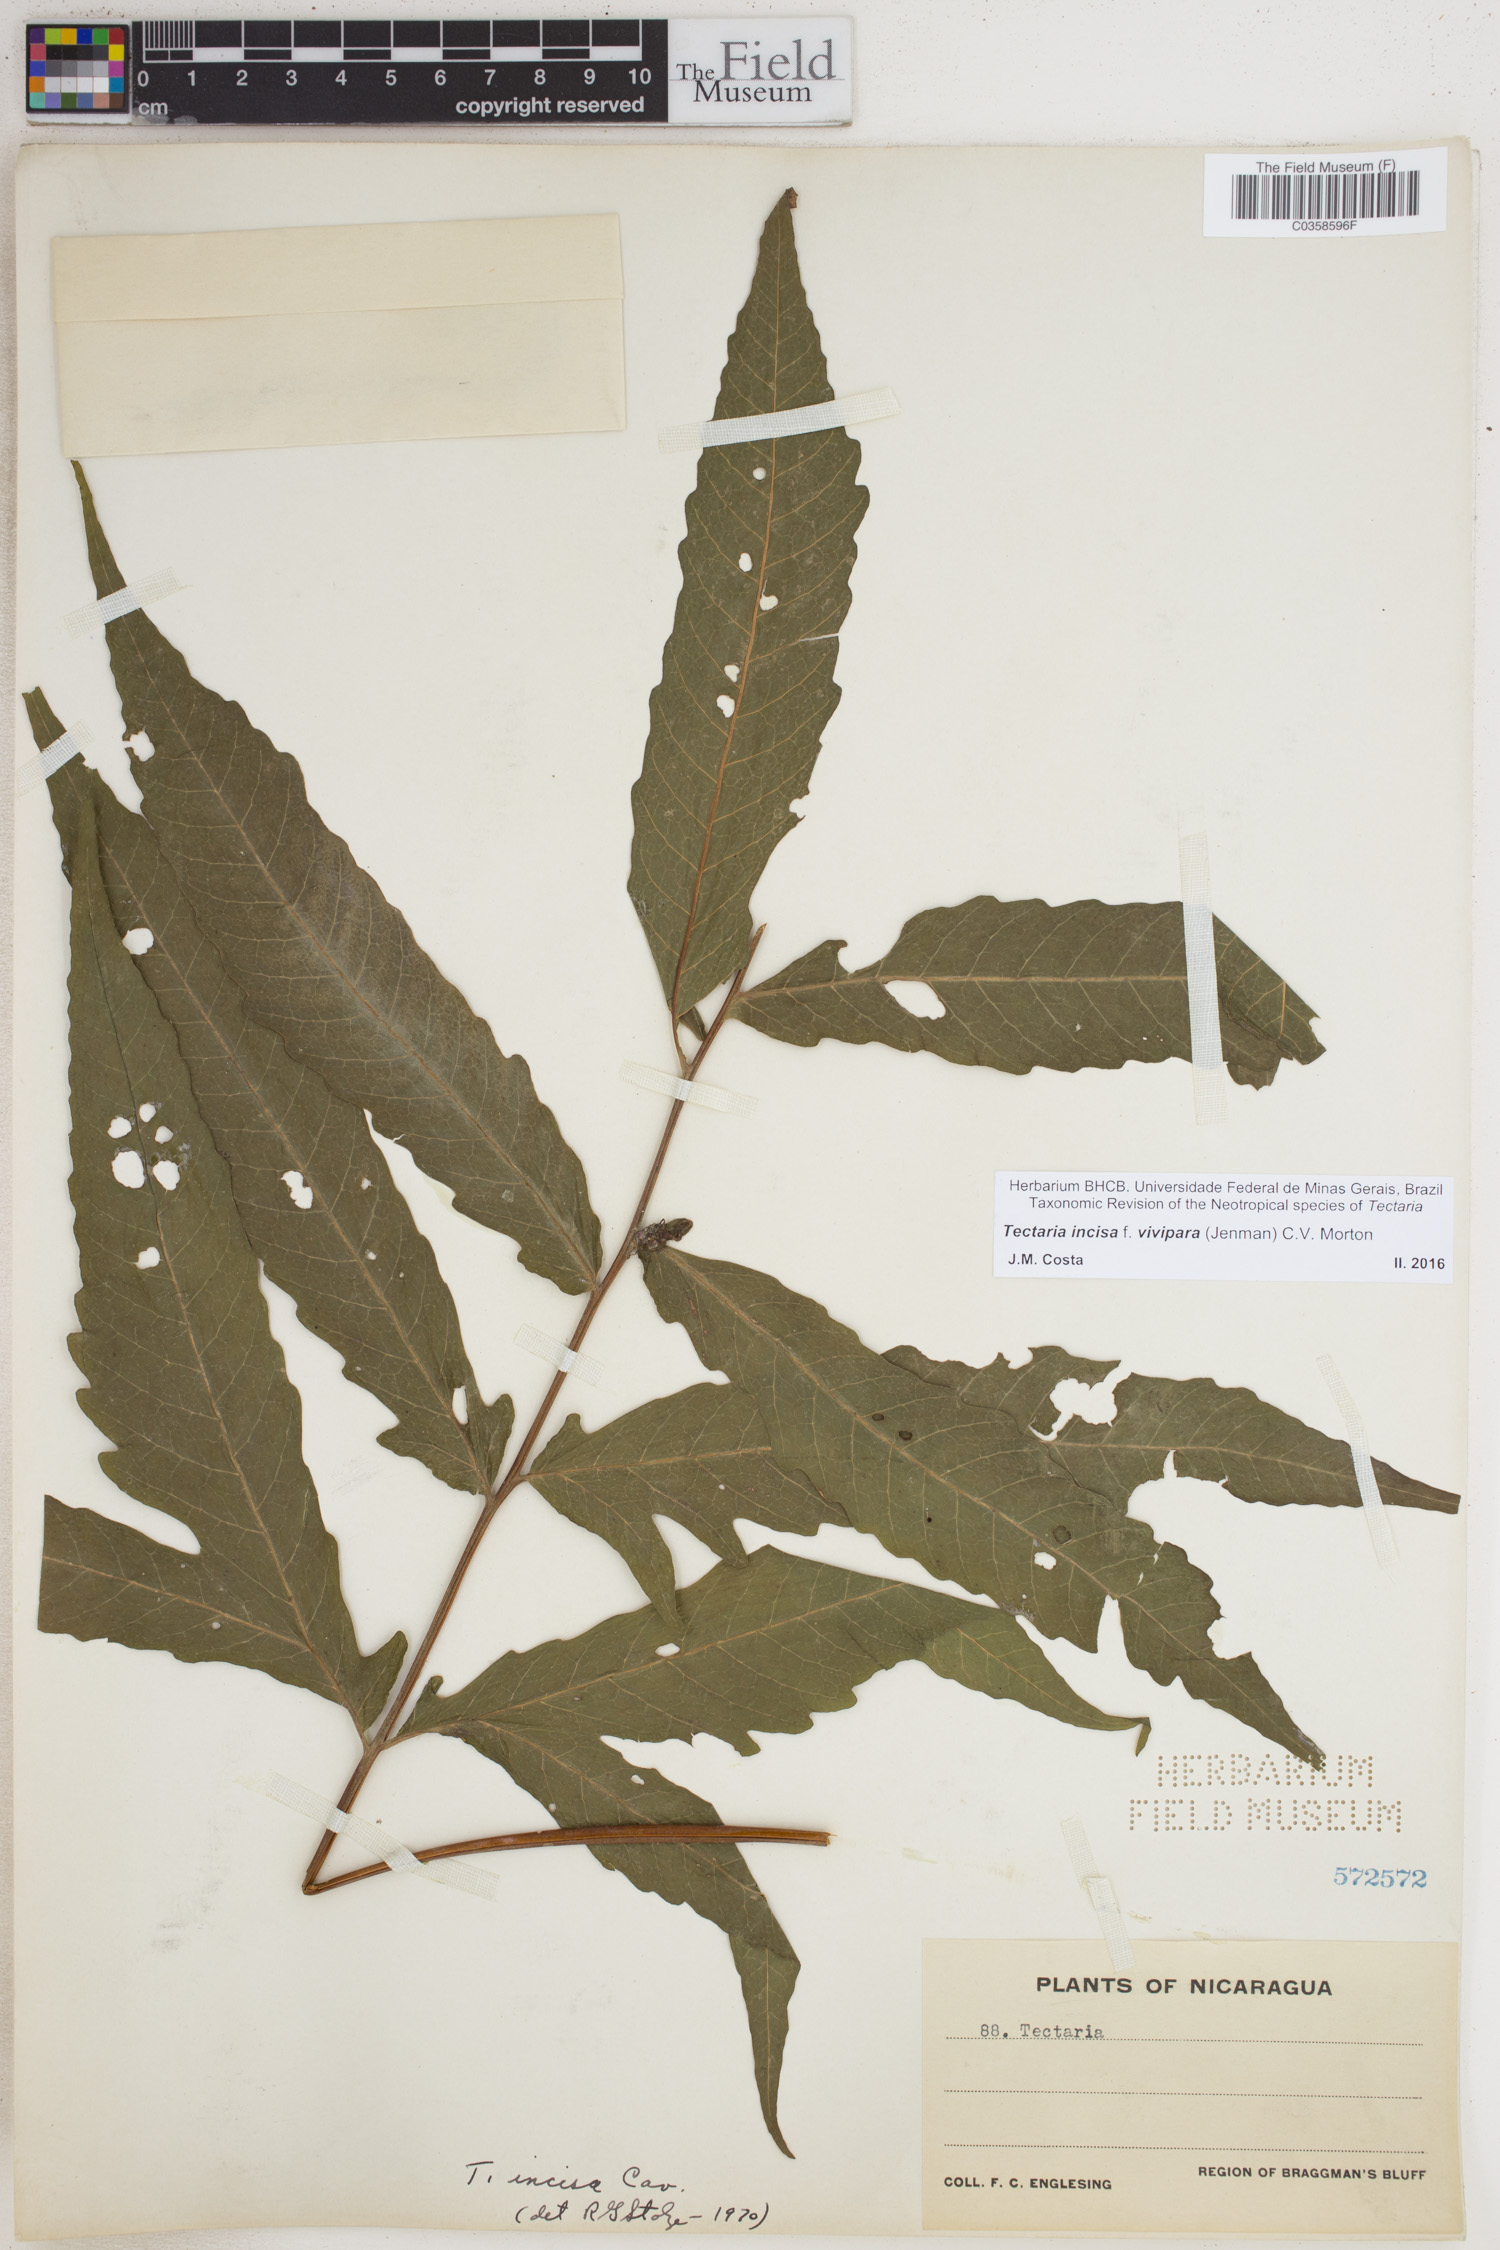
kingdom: Plantae
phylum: Tracheophyta
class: Polypodiopsida
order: Polypodiales
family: Tectariaceae
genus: Tectaria
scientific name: Tectaria incisa
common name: Incised halberd fern
